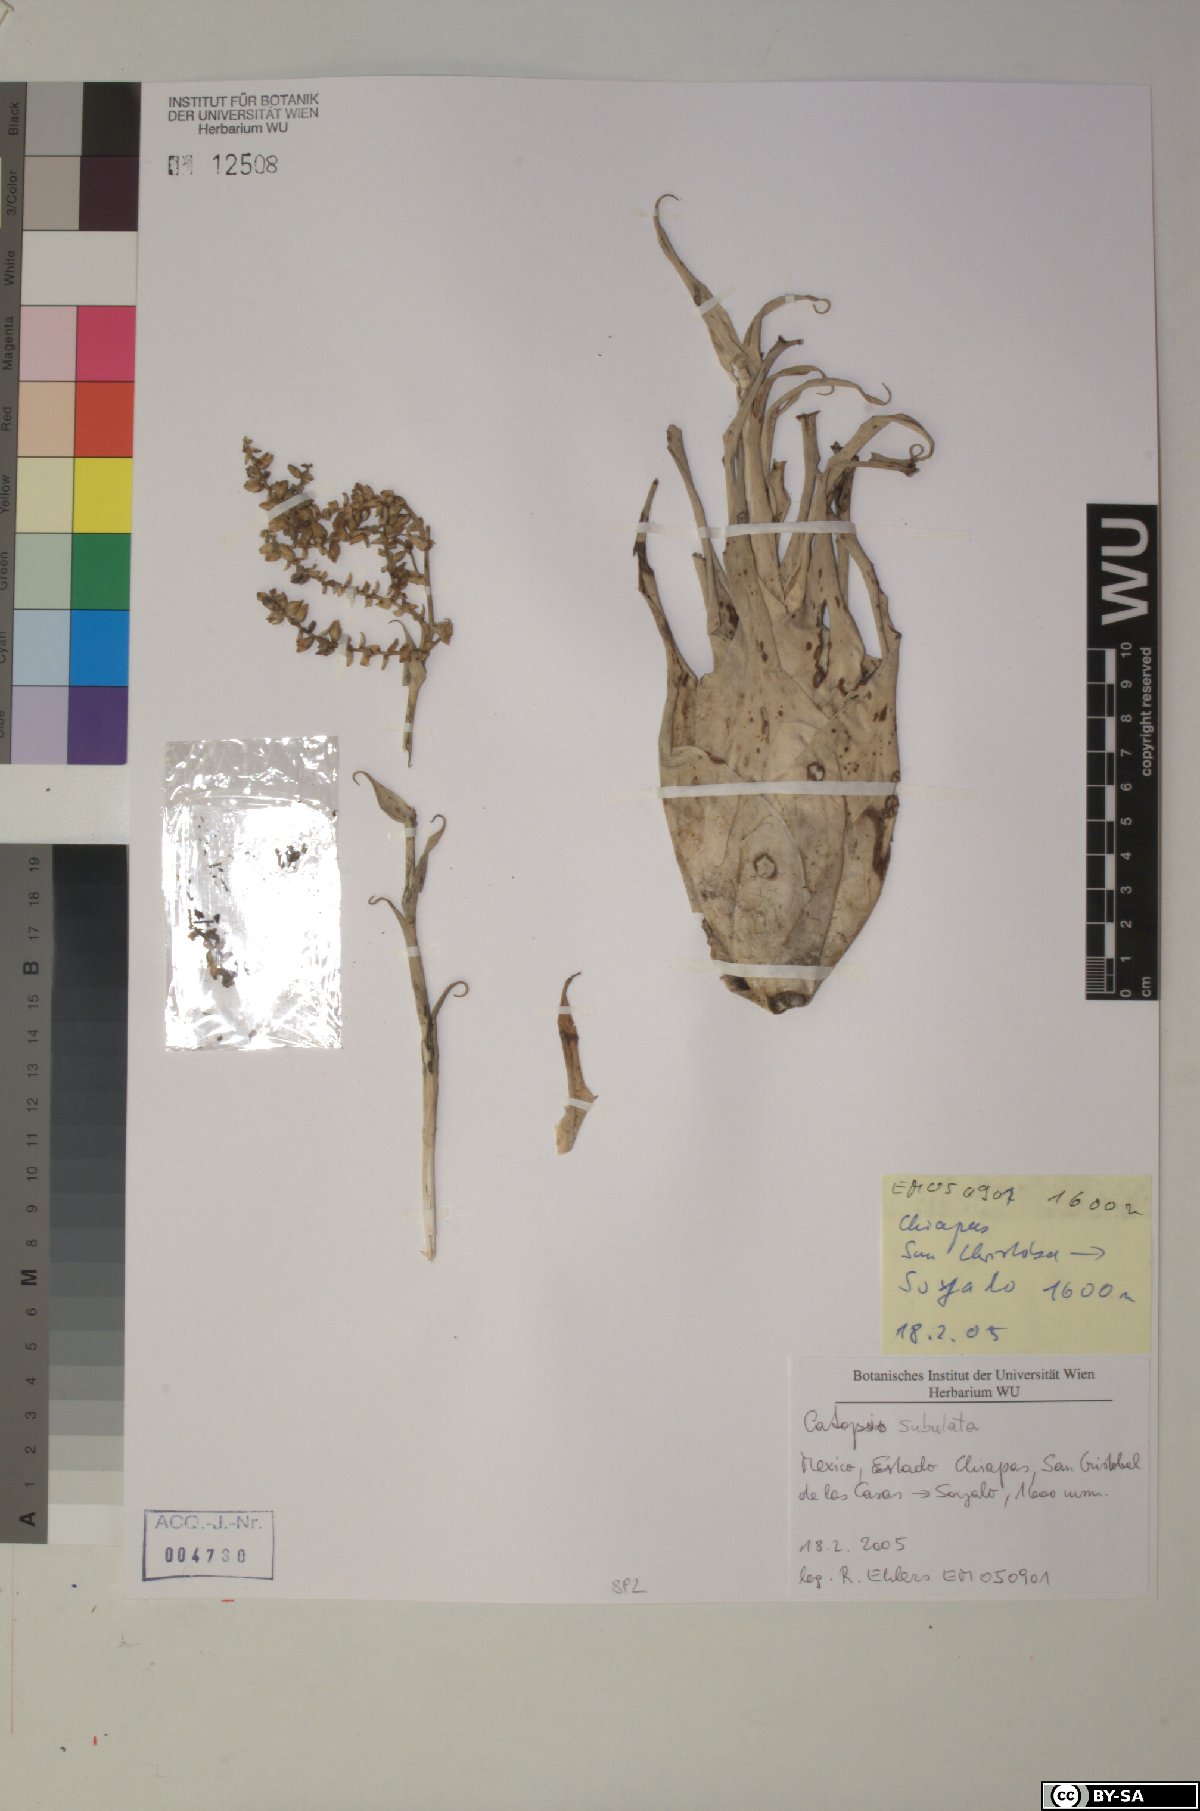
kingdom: Plantae
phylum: Tracheophyta
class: Liliopsida
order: Poales
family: Bromeliaceae
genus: Catopsis
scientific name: Catopsis subulata
